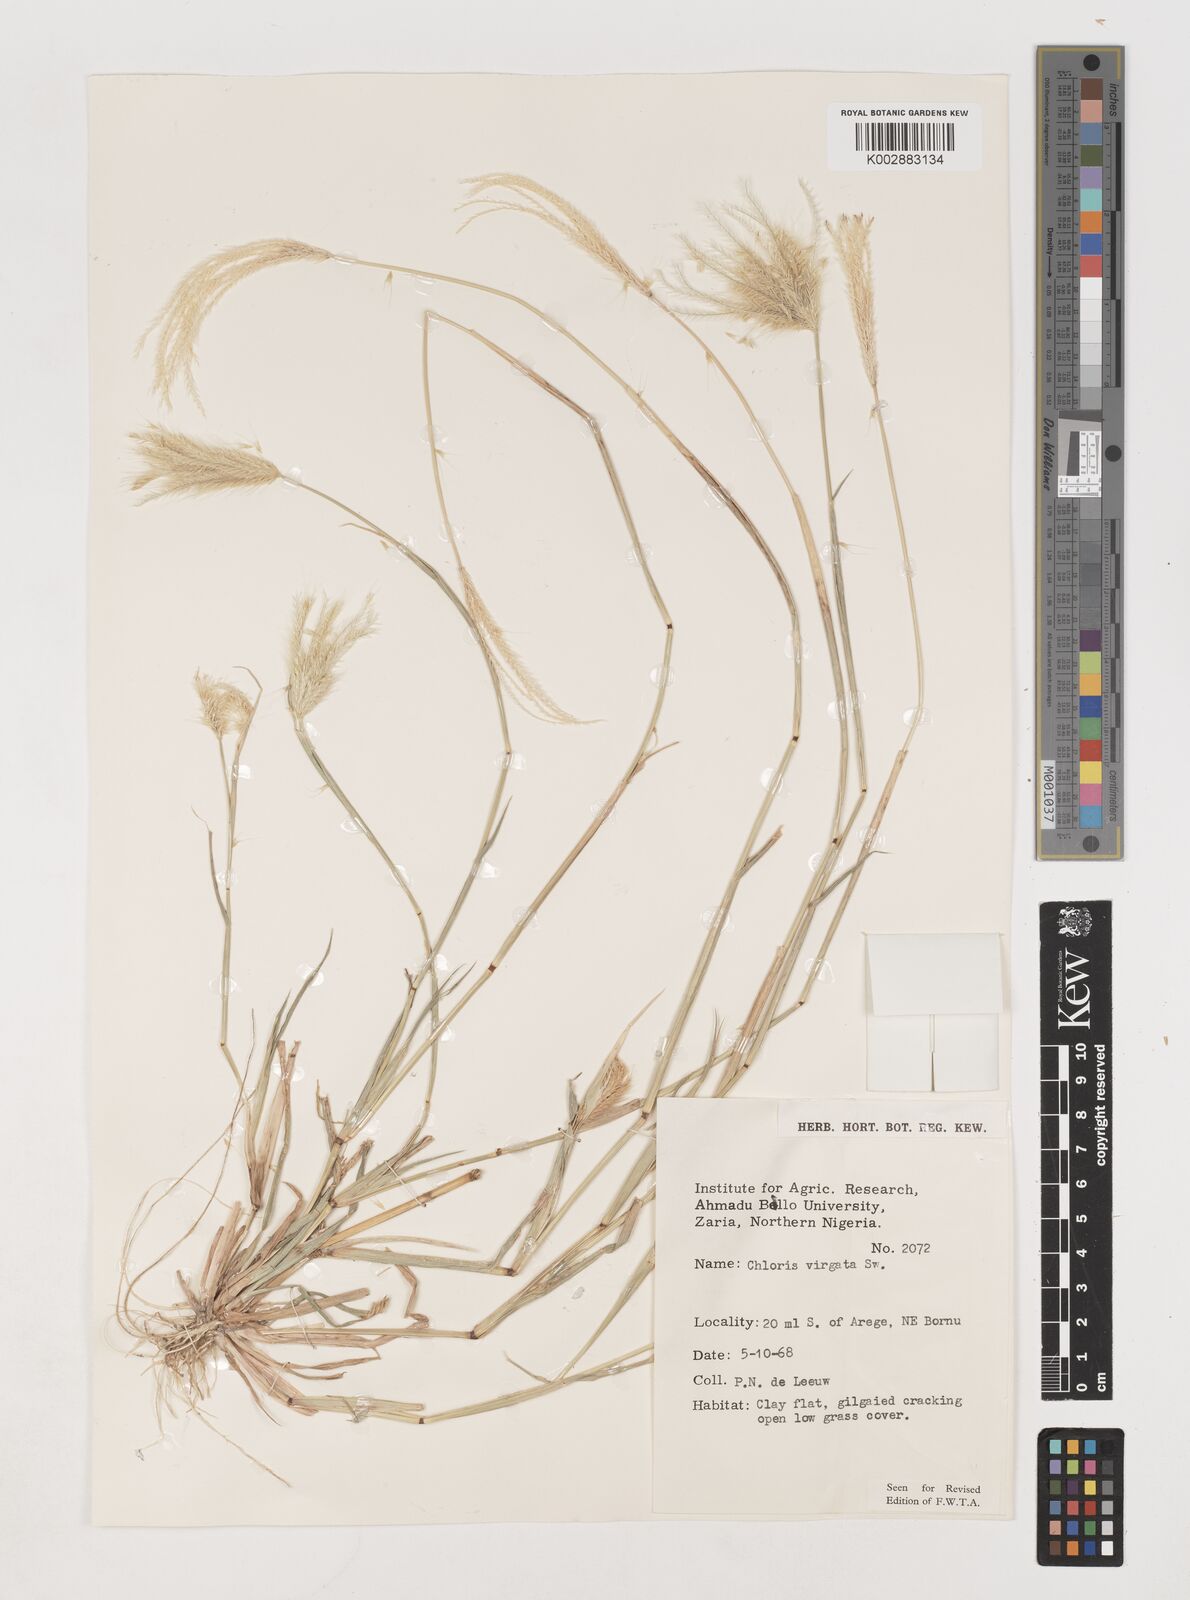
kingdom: Plantae
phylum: Tracheophyta
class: Liliopsida
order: Poales
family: Poaceae
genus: Chloris
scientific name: Chloris virgata
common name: Feathery rhodes-grass
